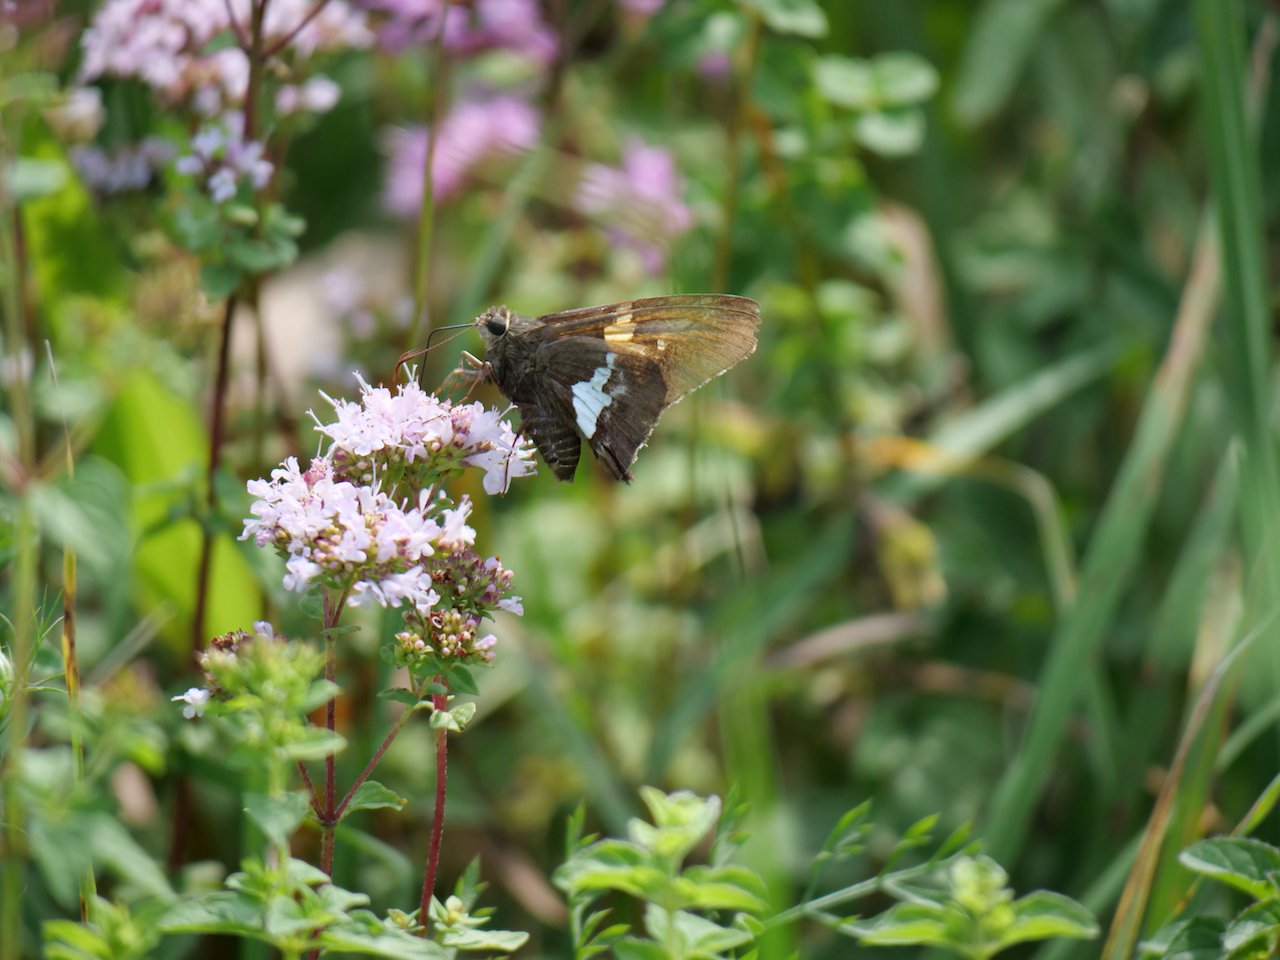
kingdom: Animalia
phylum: Arthropoda
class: Insecta
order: Lepidoptera
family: Hesperiidae
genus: Epargyreus
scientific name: Epargyreus clarus
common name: Silver-spotted Skipper
